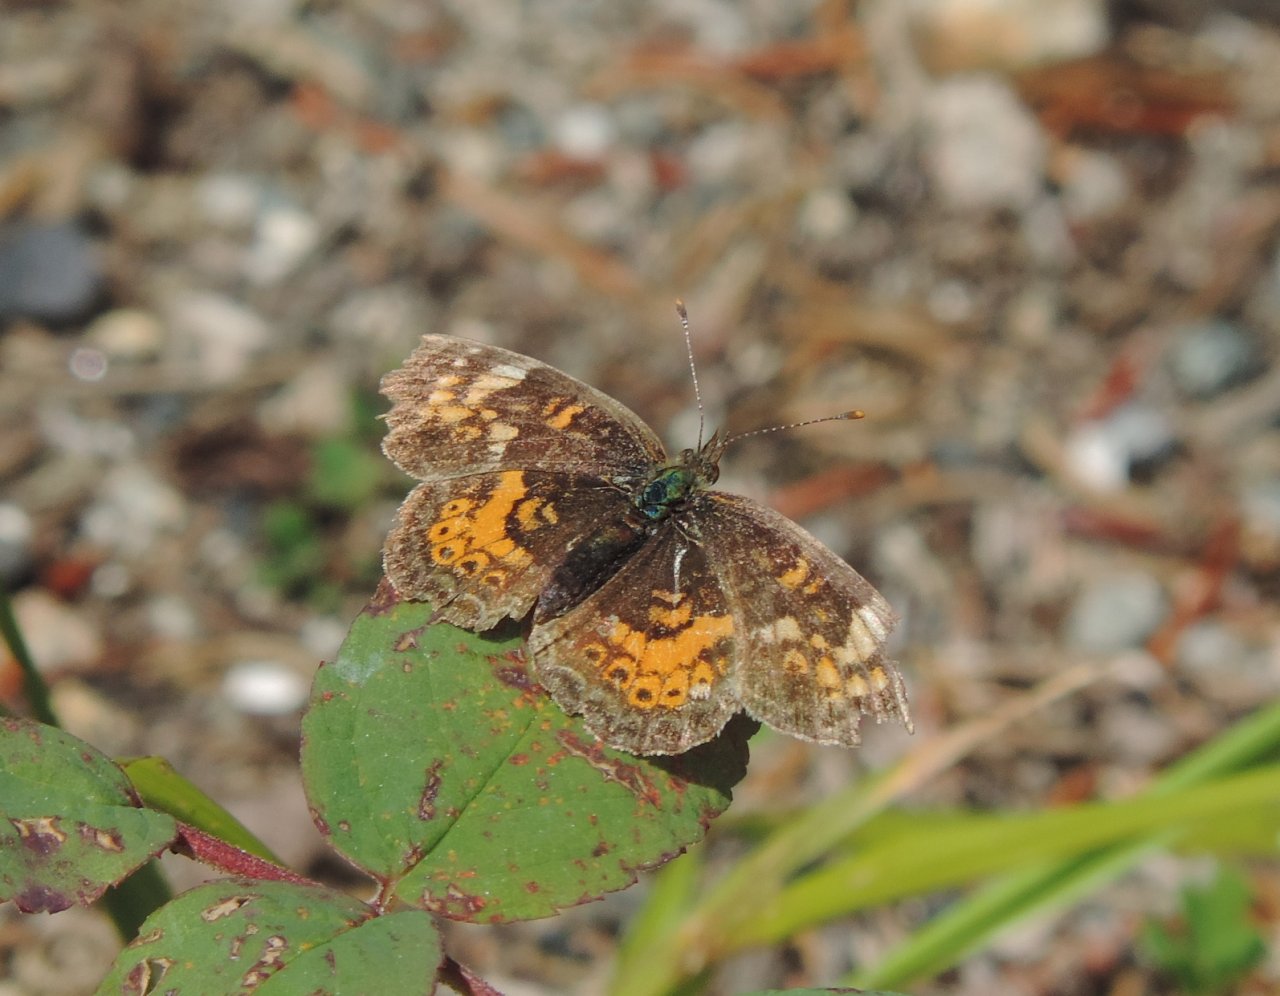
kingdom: Animalia
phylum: Arthropoda
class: Insecta
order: Lepidoptera
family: Nymphalidae
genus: Phyciodes
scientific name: Phyciodes tharos
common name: Northern Crescent
